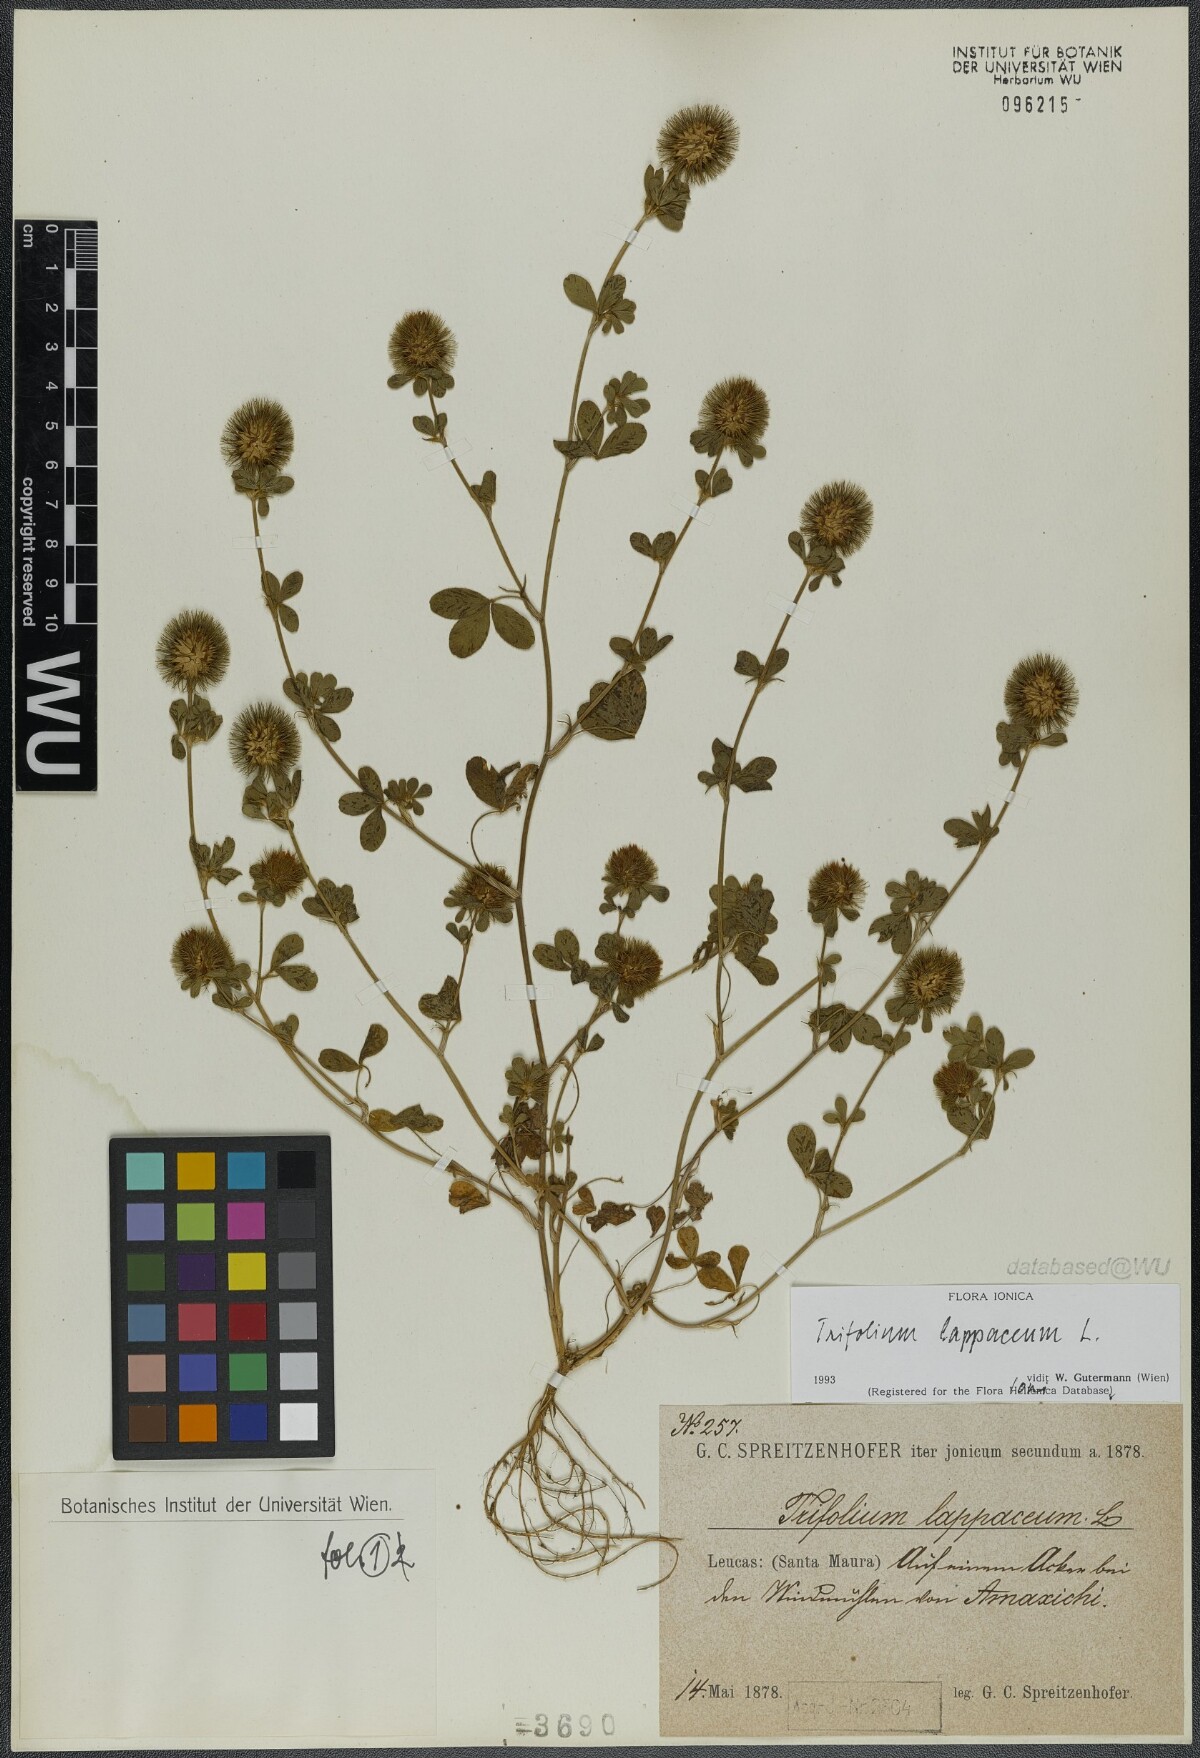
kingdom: Plantae
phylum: Tracheophyta
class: Magnoliopsida
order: Fabales
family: Fabaceae
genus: Trifolium
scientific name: Trifolium lappaceum
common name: Bur clover
